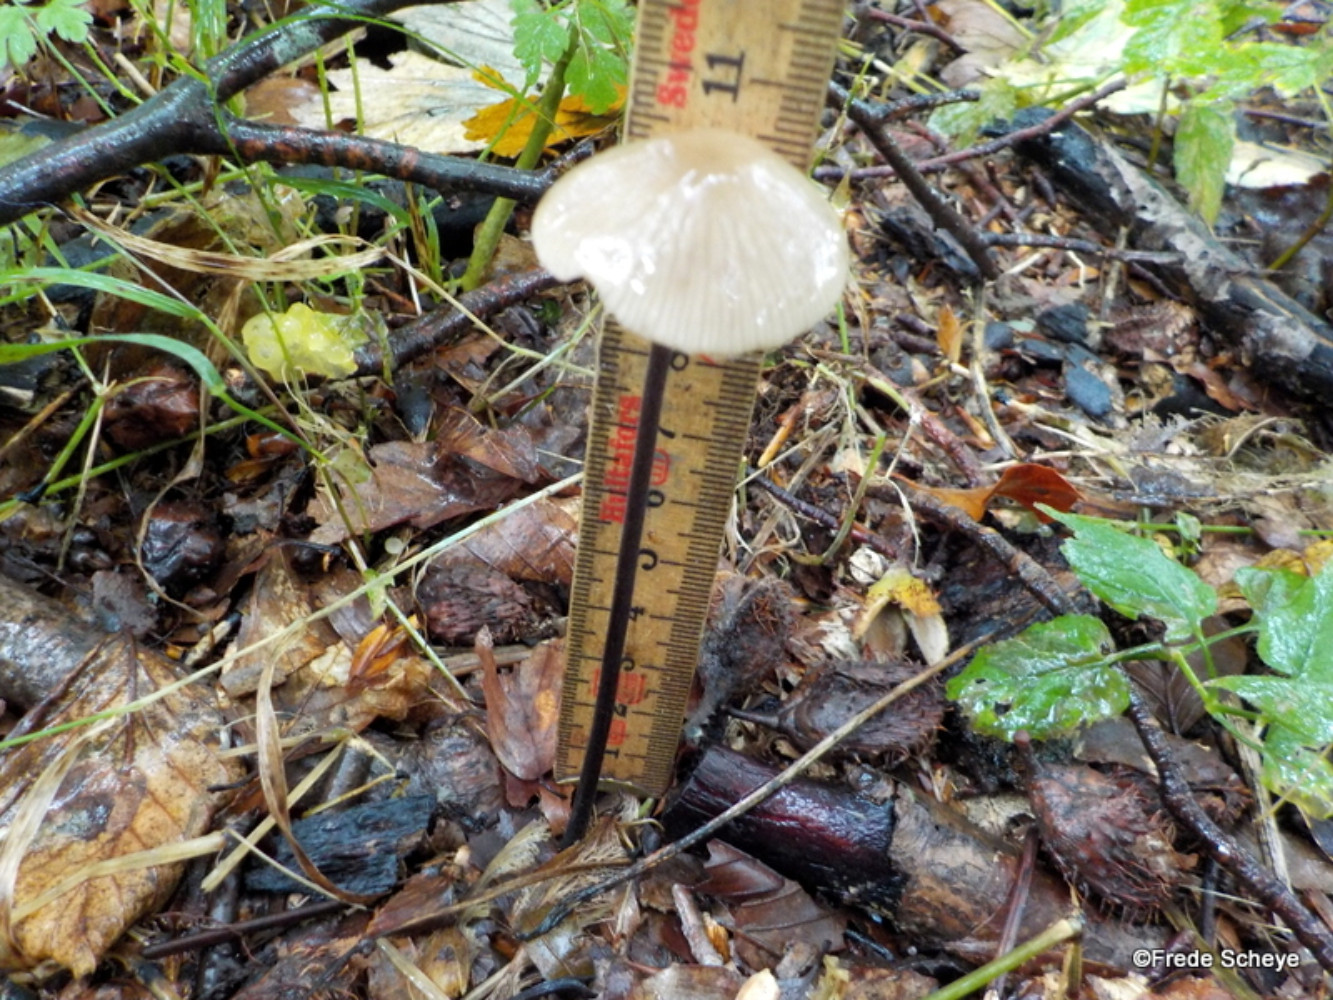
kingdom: Fungi
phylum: Basidiomycota
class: Agaricomycetes
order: Agaricales
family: Omphalotaceae
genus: Mycetinis
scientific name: Mycetinis alliaceus
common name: stor løghat
